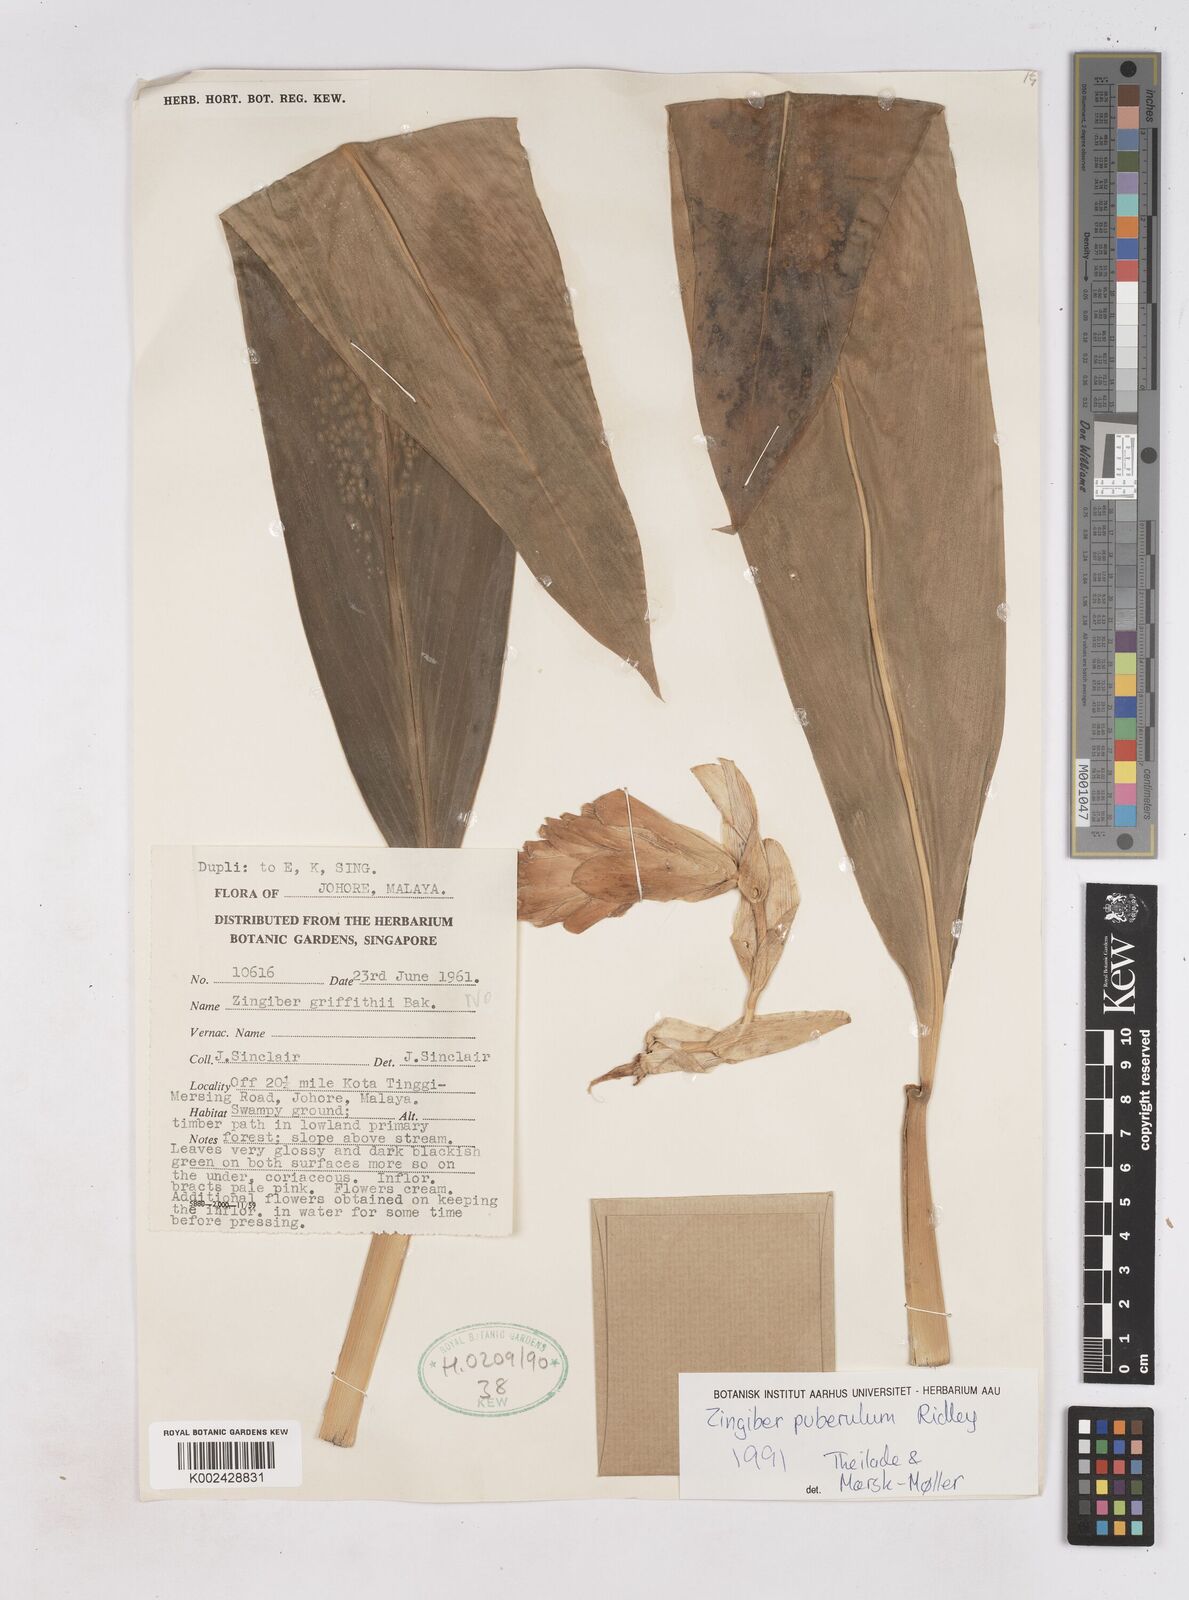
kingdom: Plantae
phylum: Tracheophyta
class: Liliopsida
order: Zingiberales
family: Zingiberaceae
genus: Zingiber
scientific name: Zingiber puberulum
